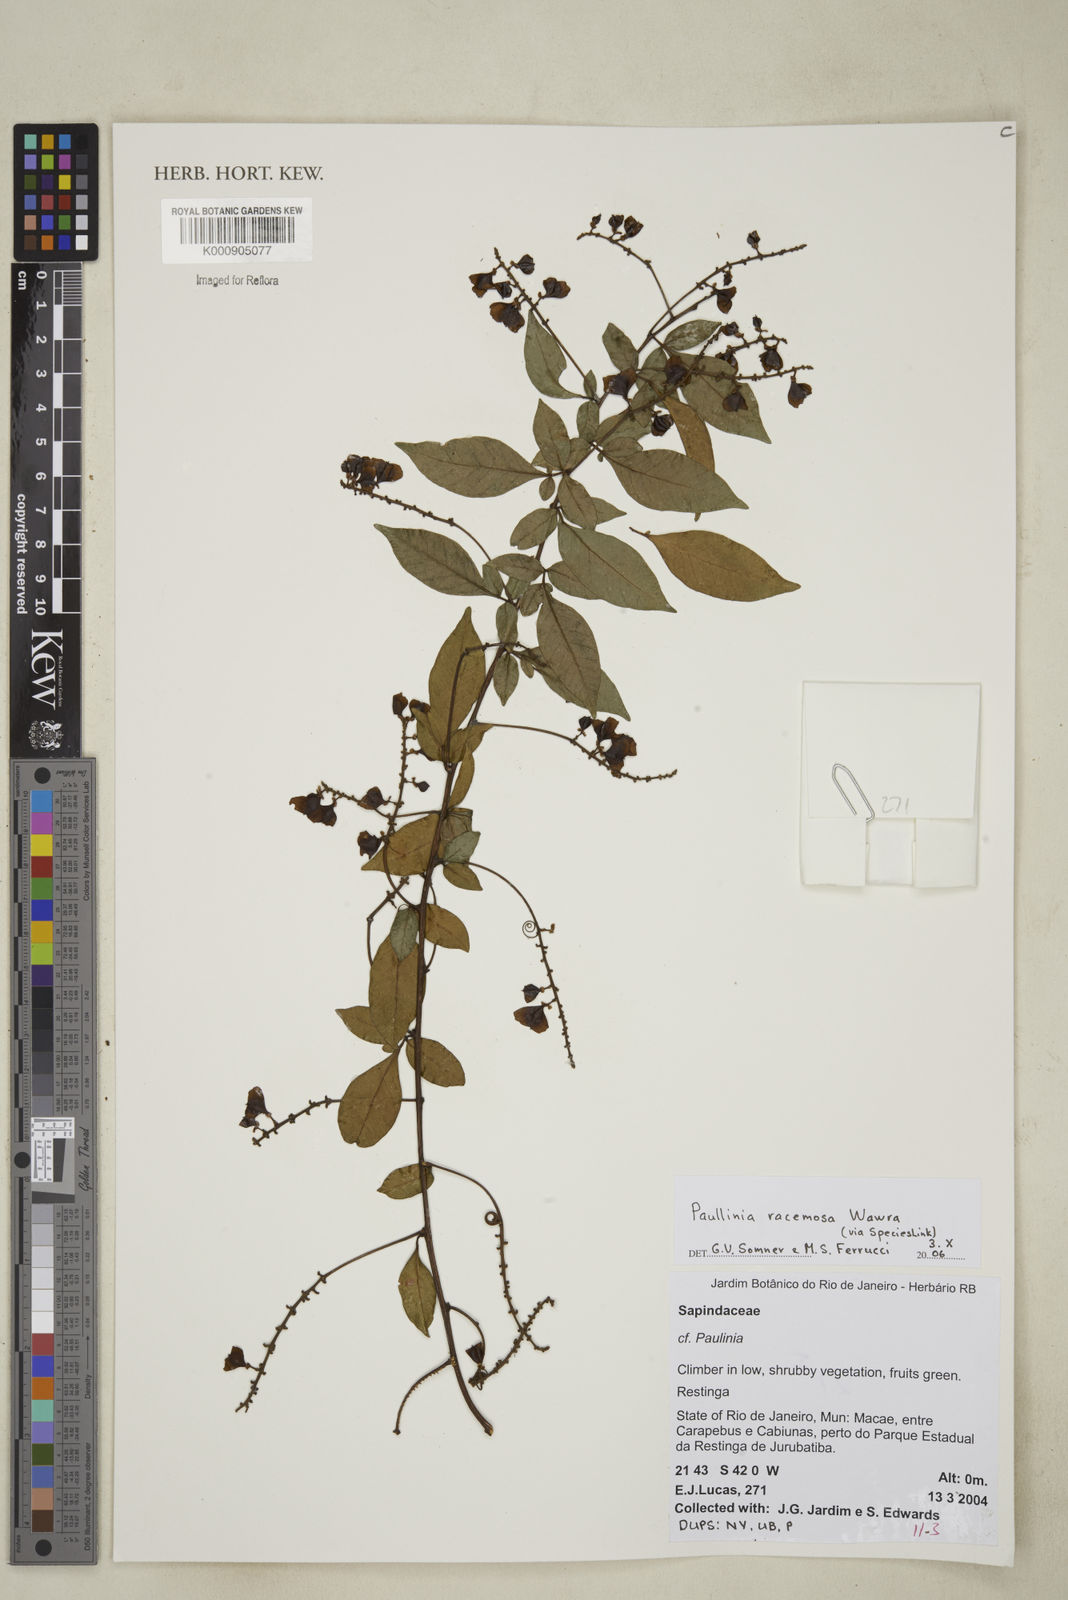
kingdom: Plantae
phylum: Tracheophyta
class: Magnoliopsida
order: Sapindales
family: Sapindaceae
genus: Paullinia
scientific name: Paullinia racemosa
